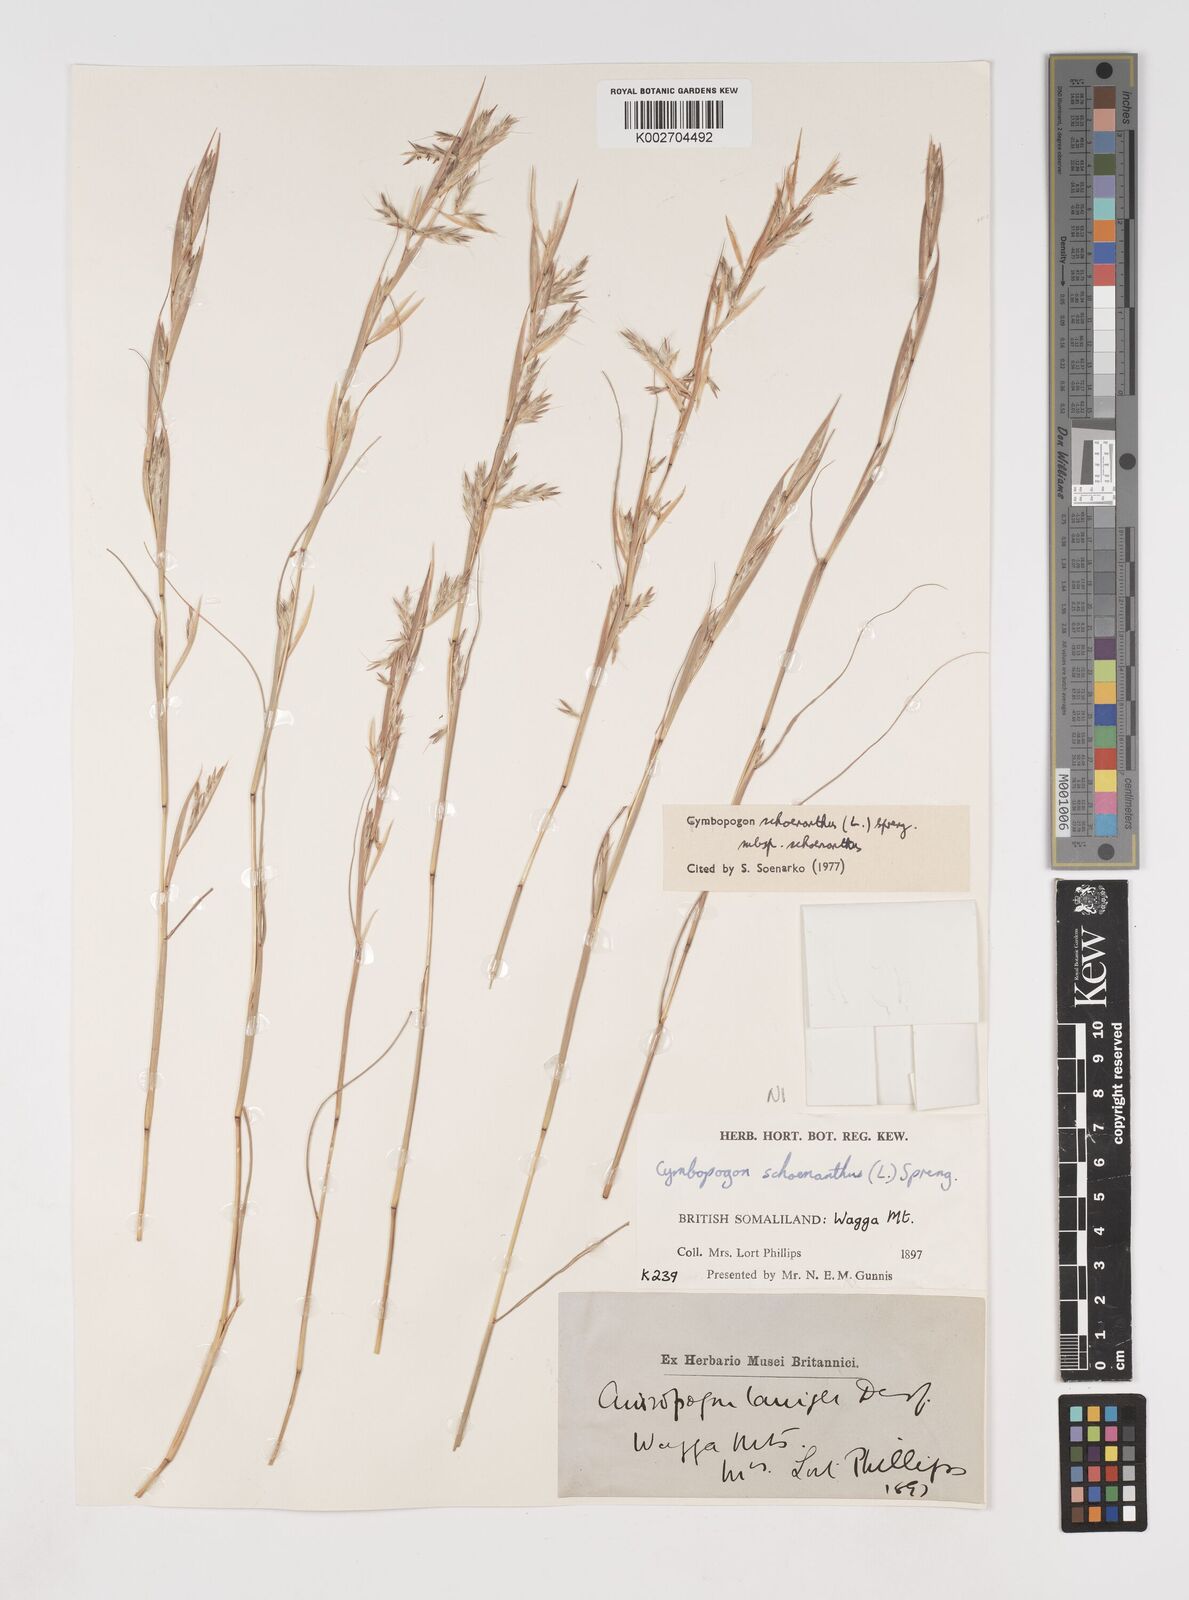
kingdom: Plantae
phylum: Tracheophyta
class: Liliopsida
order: Poales
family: Poaceae
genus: Cymbopogon
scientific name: Cymbopogon schoenanthus
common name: Geranium grass
